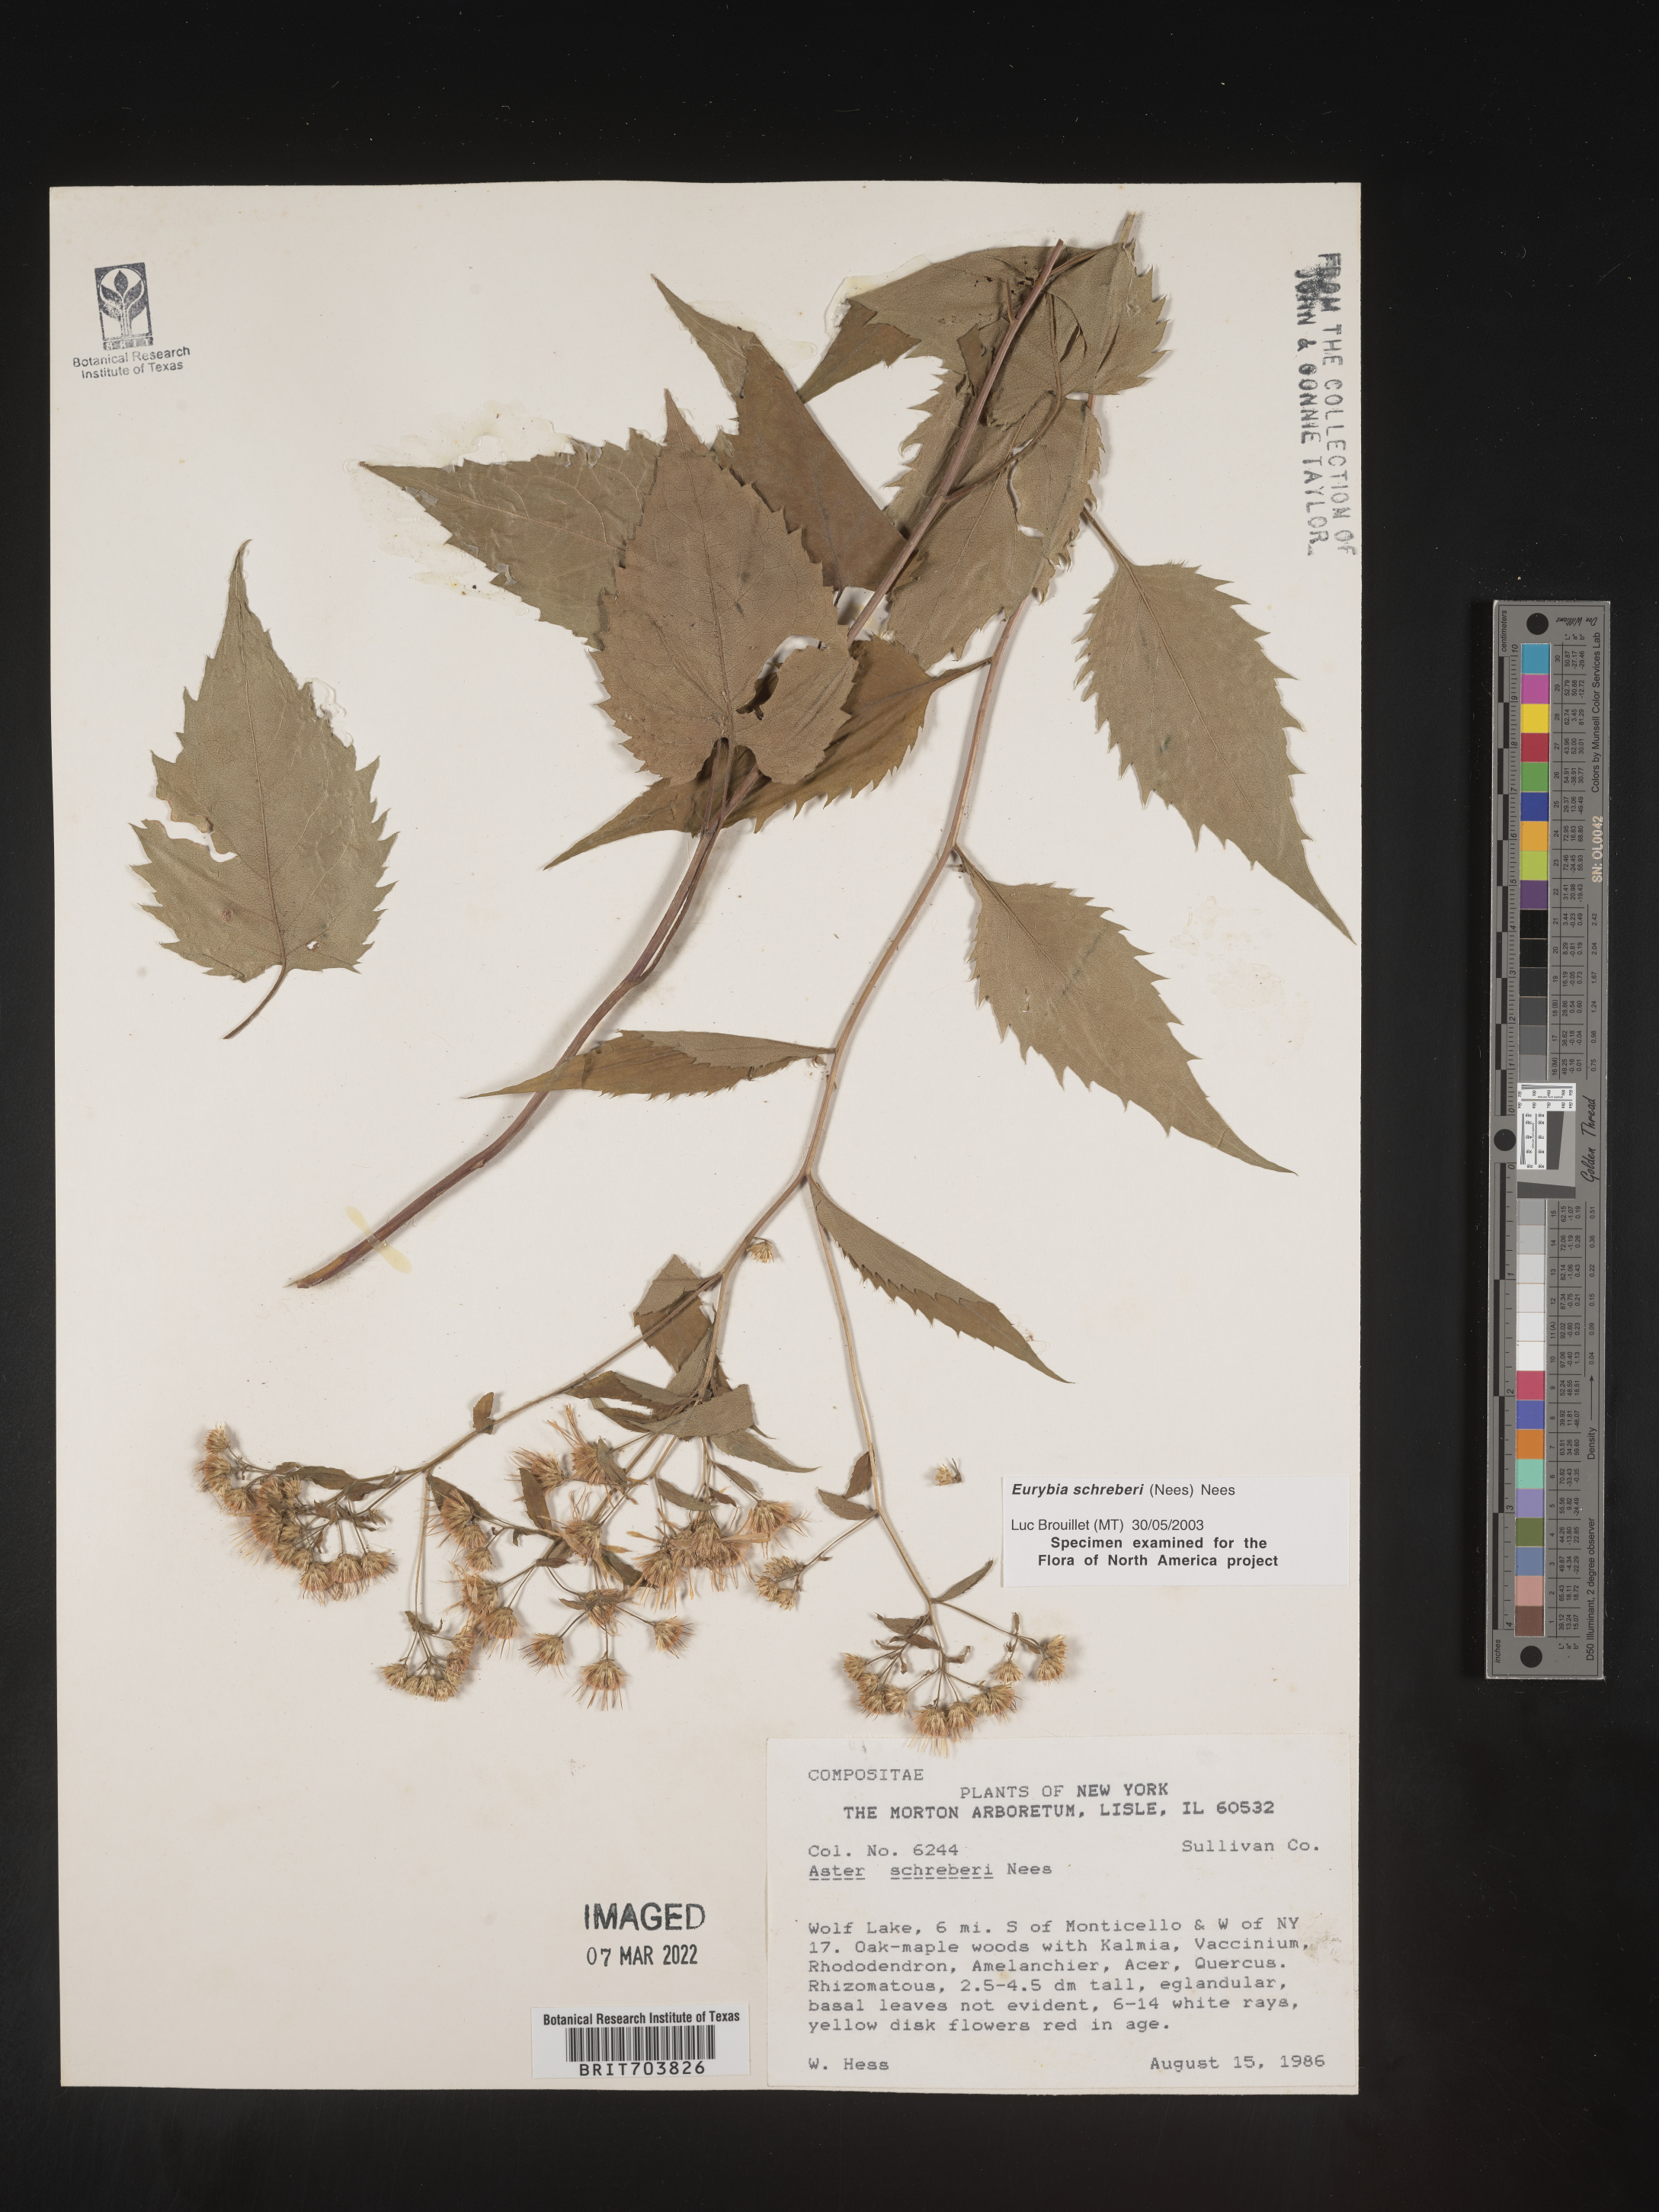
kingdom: Plantae
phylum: Tracheophyta
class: Magnoliopsida
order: Asterales
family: Asteraceae
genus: Eurybia
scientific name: Eurybia schreberi
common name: Schreber's aster
